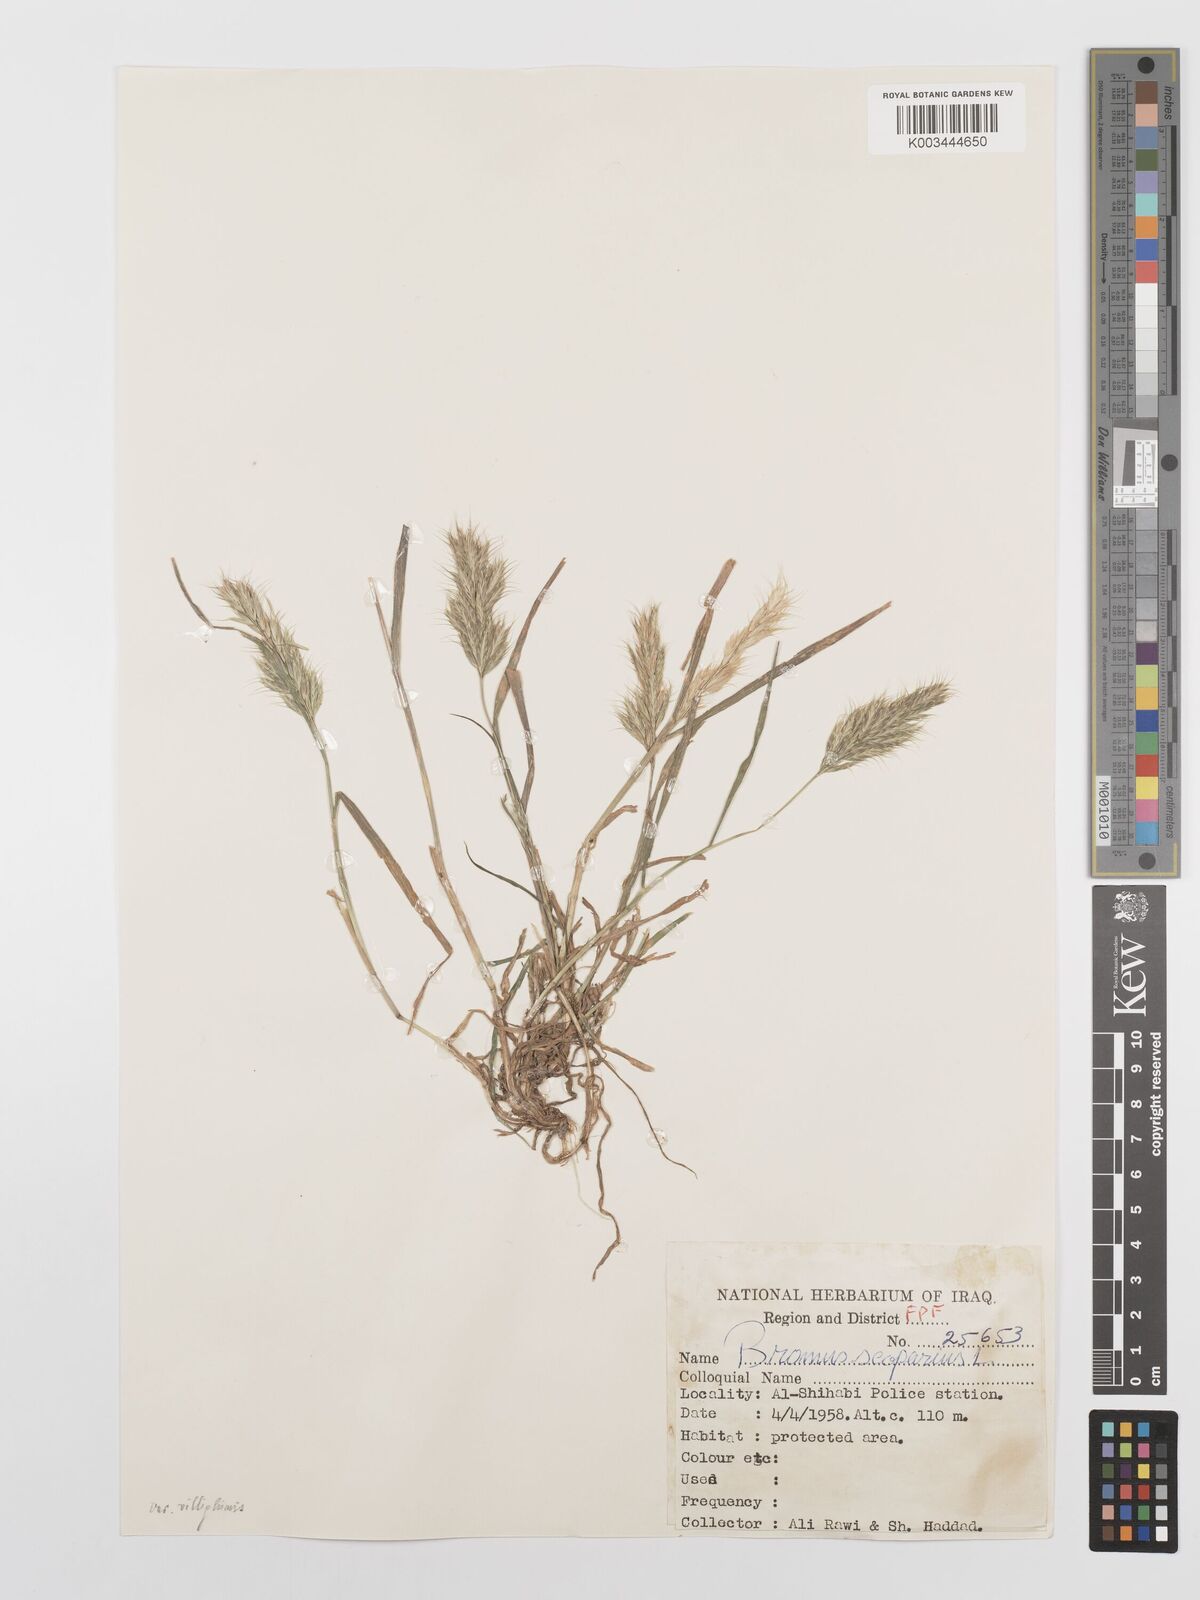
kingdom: Plantae
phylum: Tracheophyta
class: Liliopsida
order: Poales
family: Poaceae
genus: Bromus
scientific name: Bromus scoparius
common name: Broom brome
